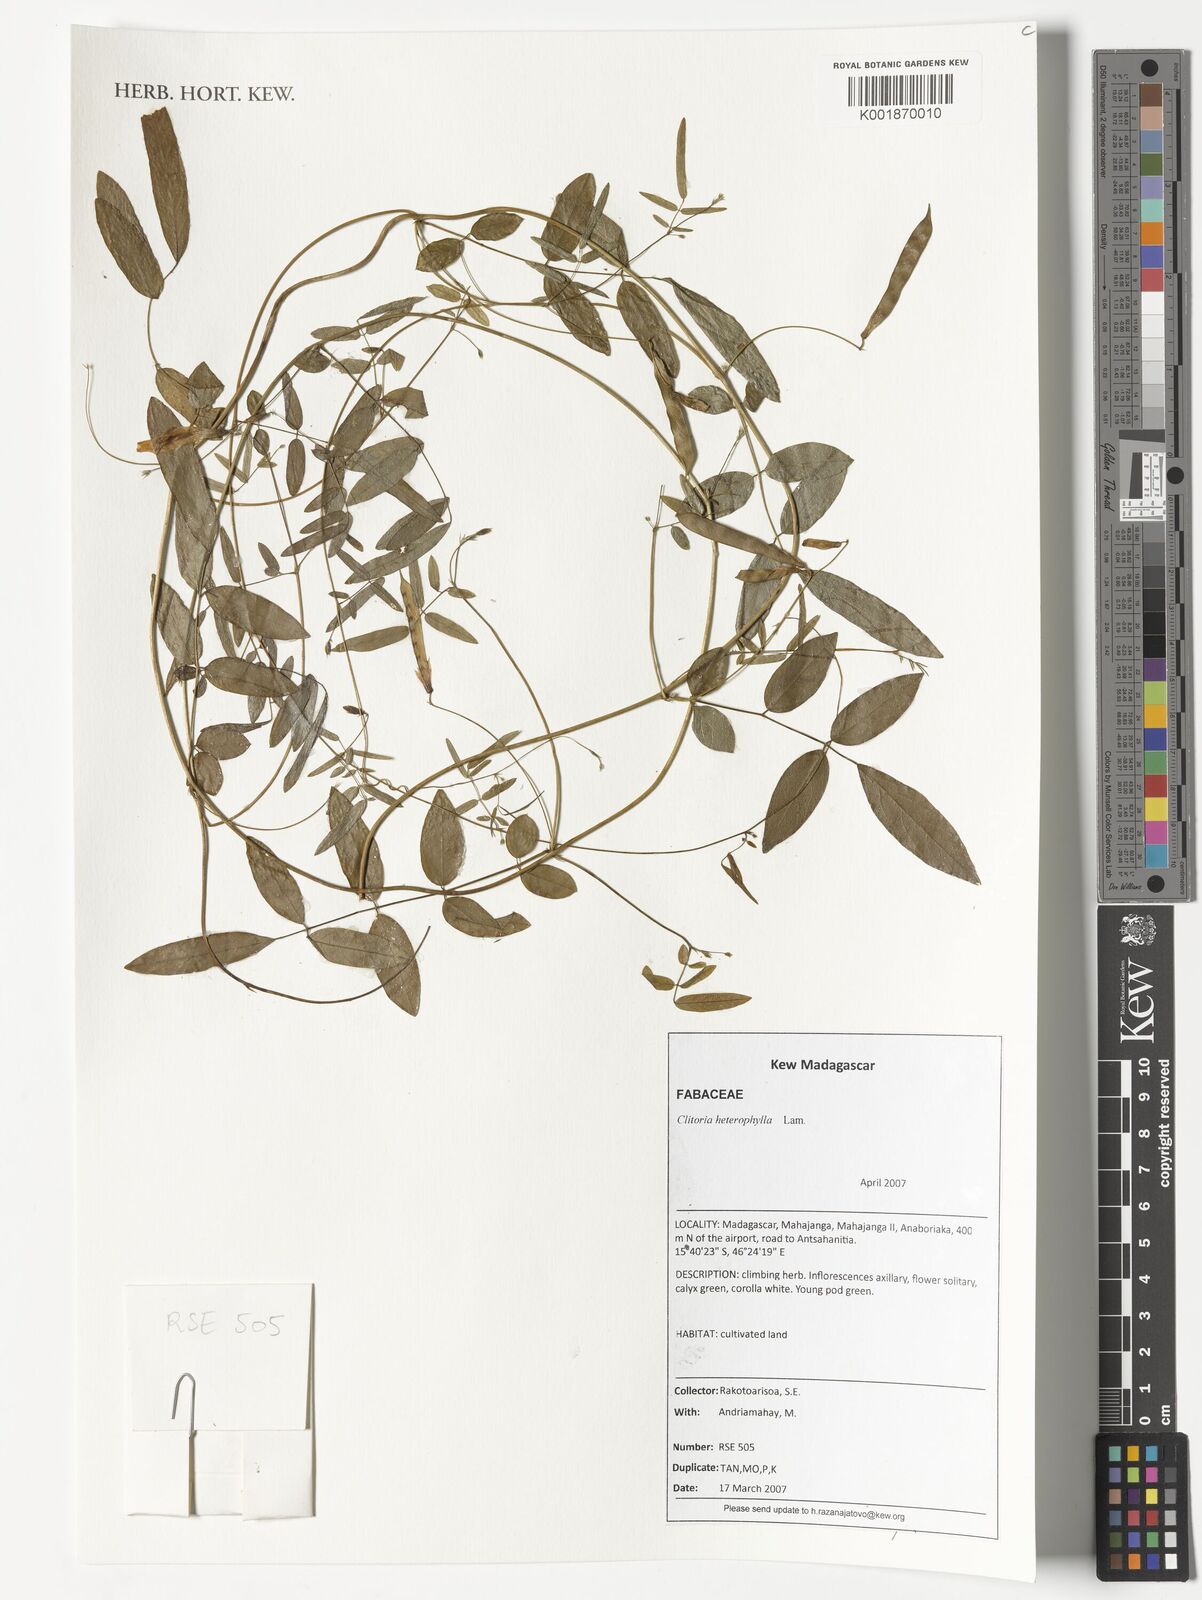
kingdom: Plantae
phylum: Tracheophyta
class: Magnoliopsida
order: Fabales
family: Fabaceae
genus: Clitoria
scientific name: Clitoria heterophylla
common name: Pigeonwings
